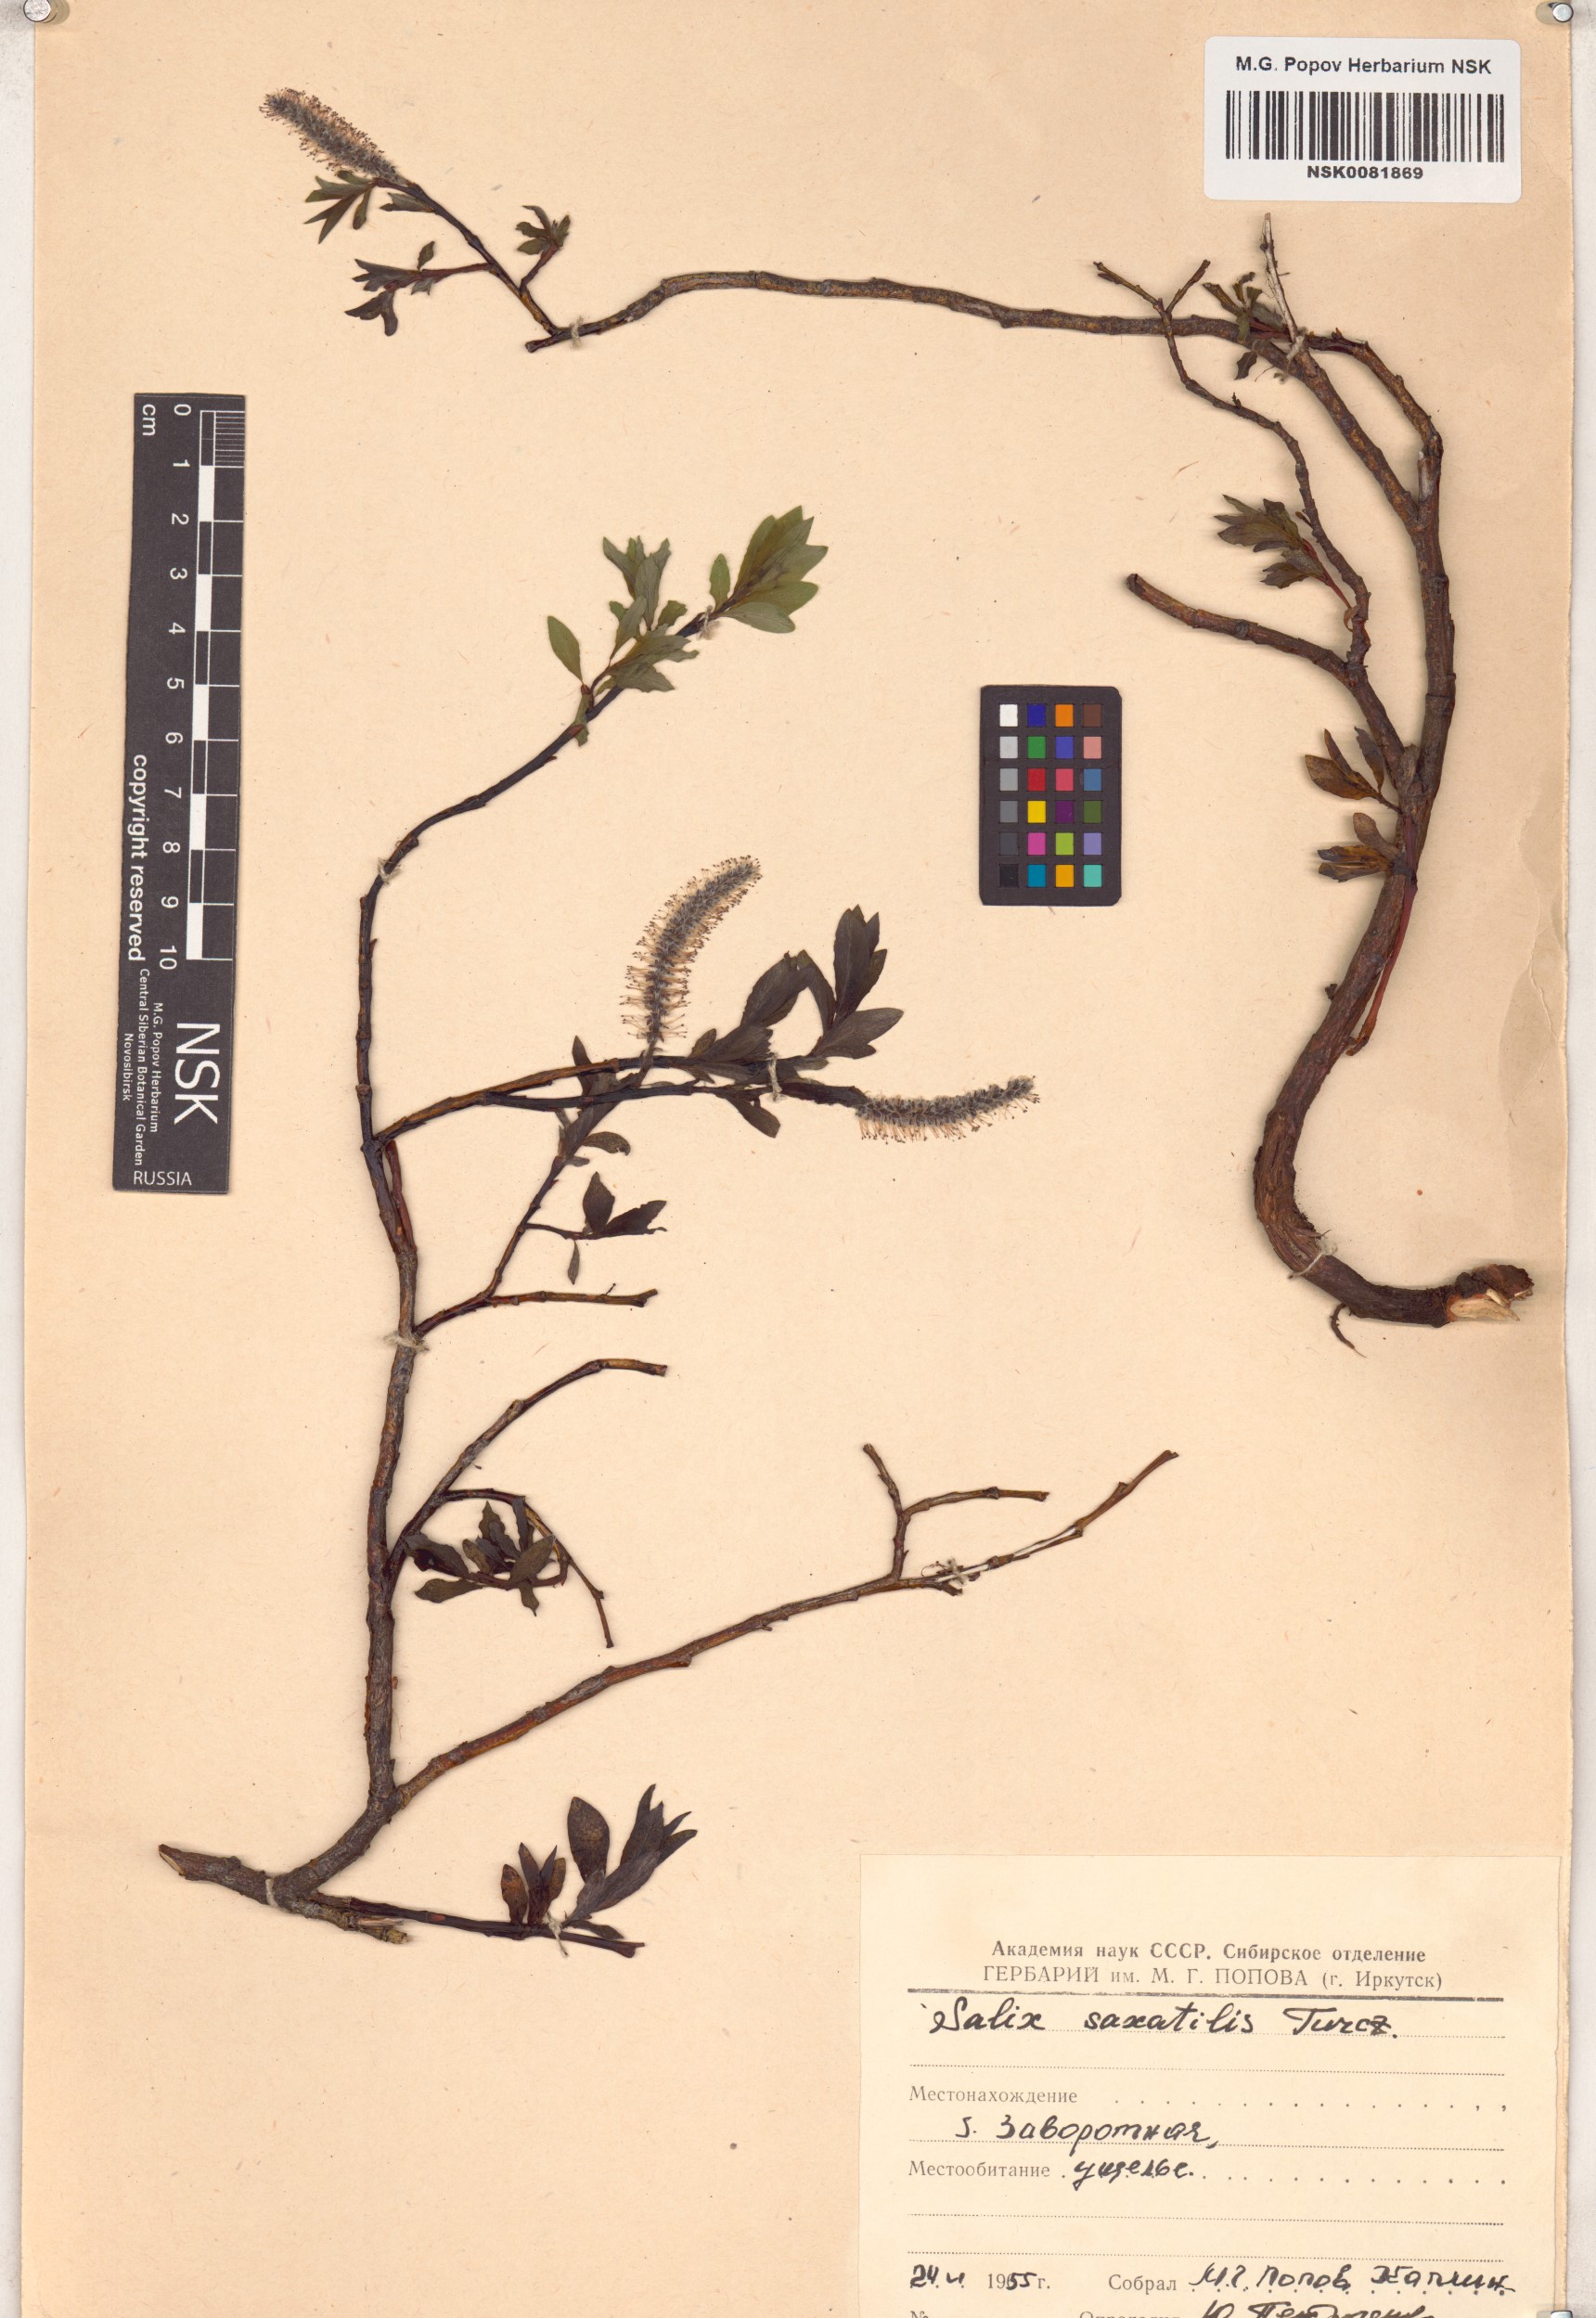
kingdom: Plantae
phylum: Tracheophyta
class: Magnoliopsida
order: Malpighiales
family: Salicaceae
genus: Salix
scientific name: Salix saxatilis
